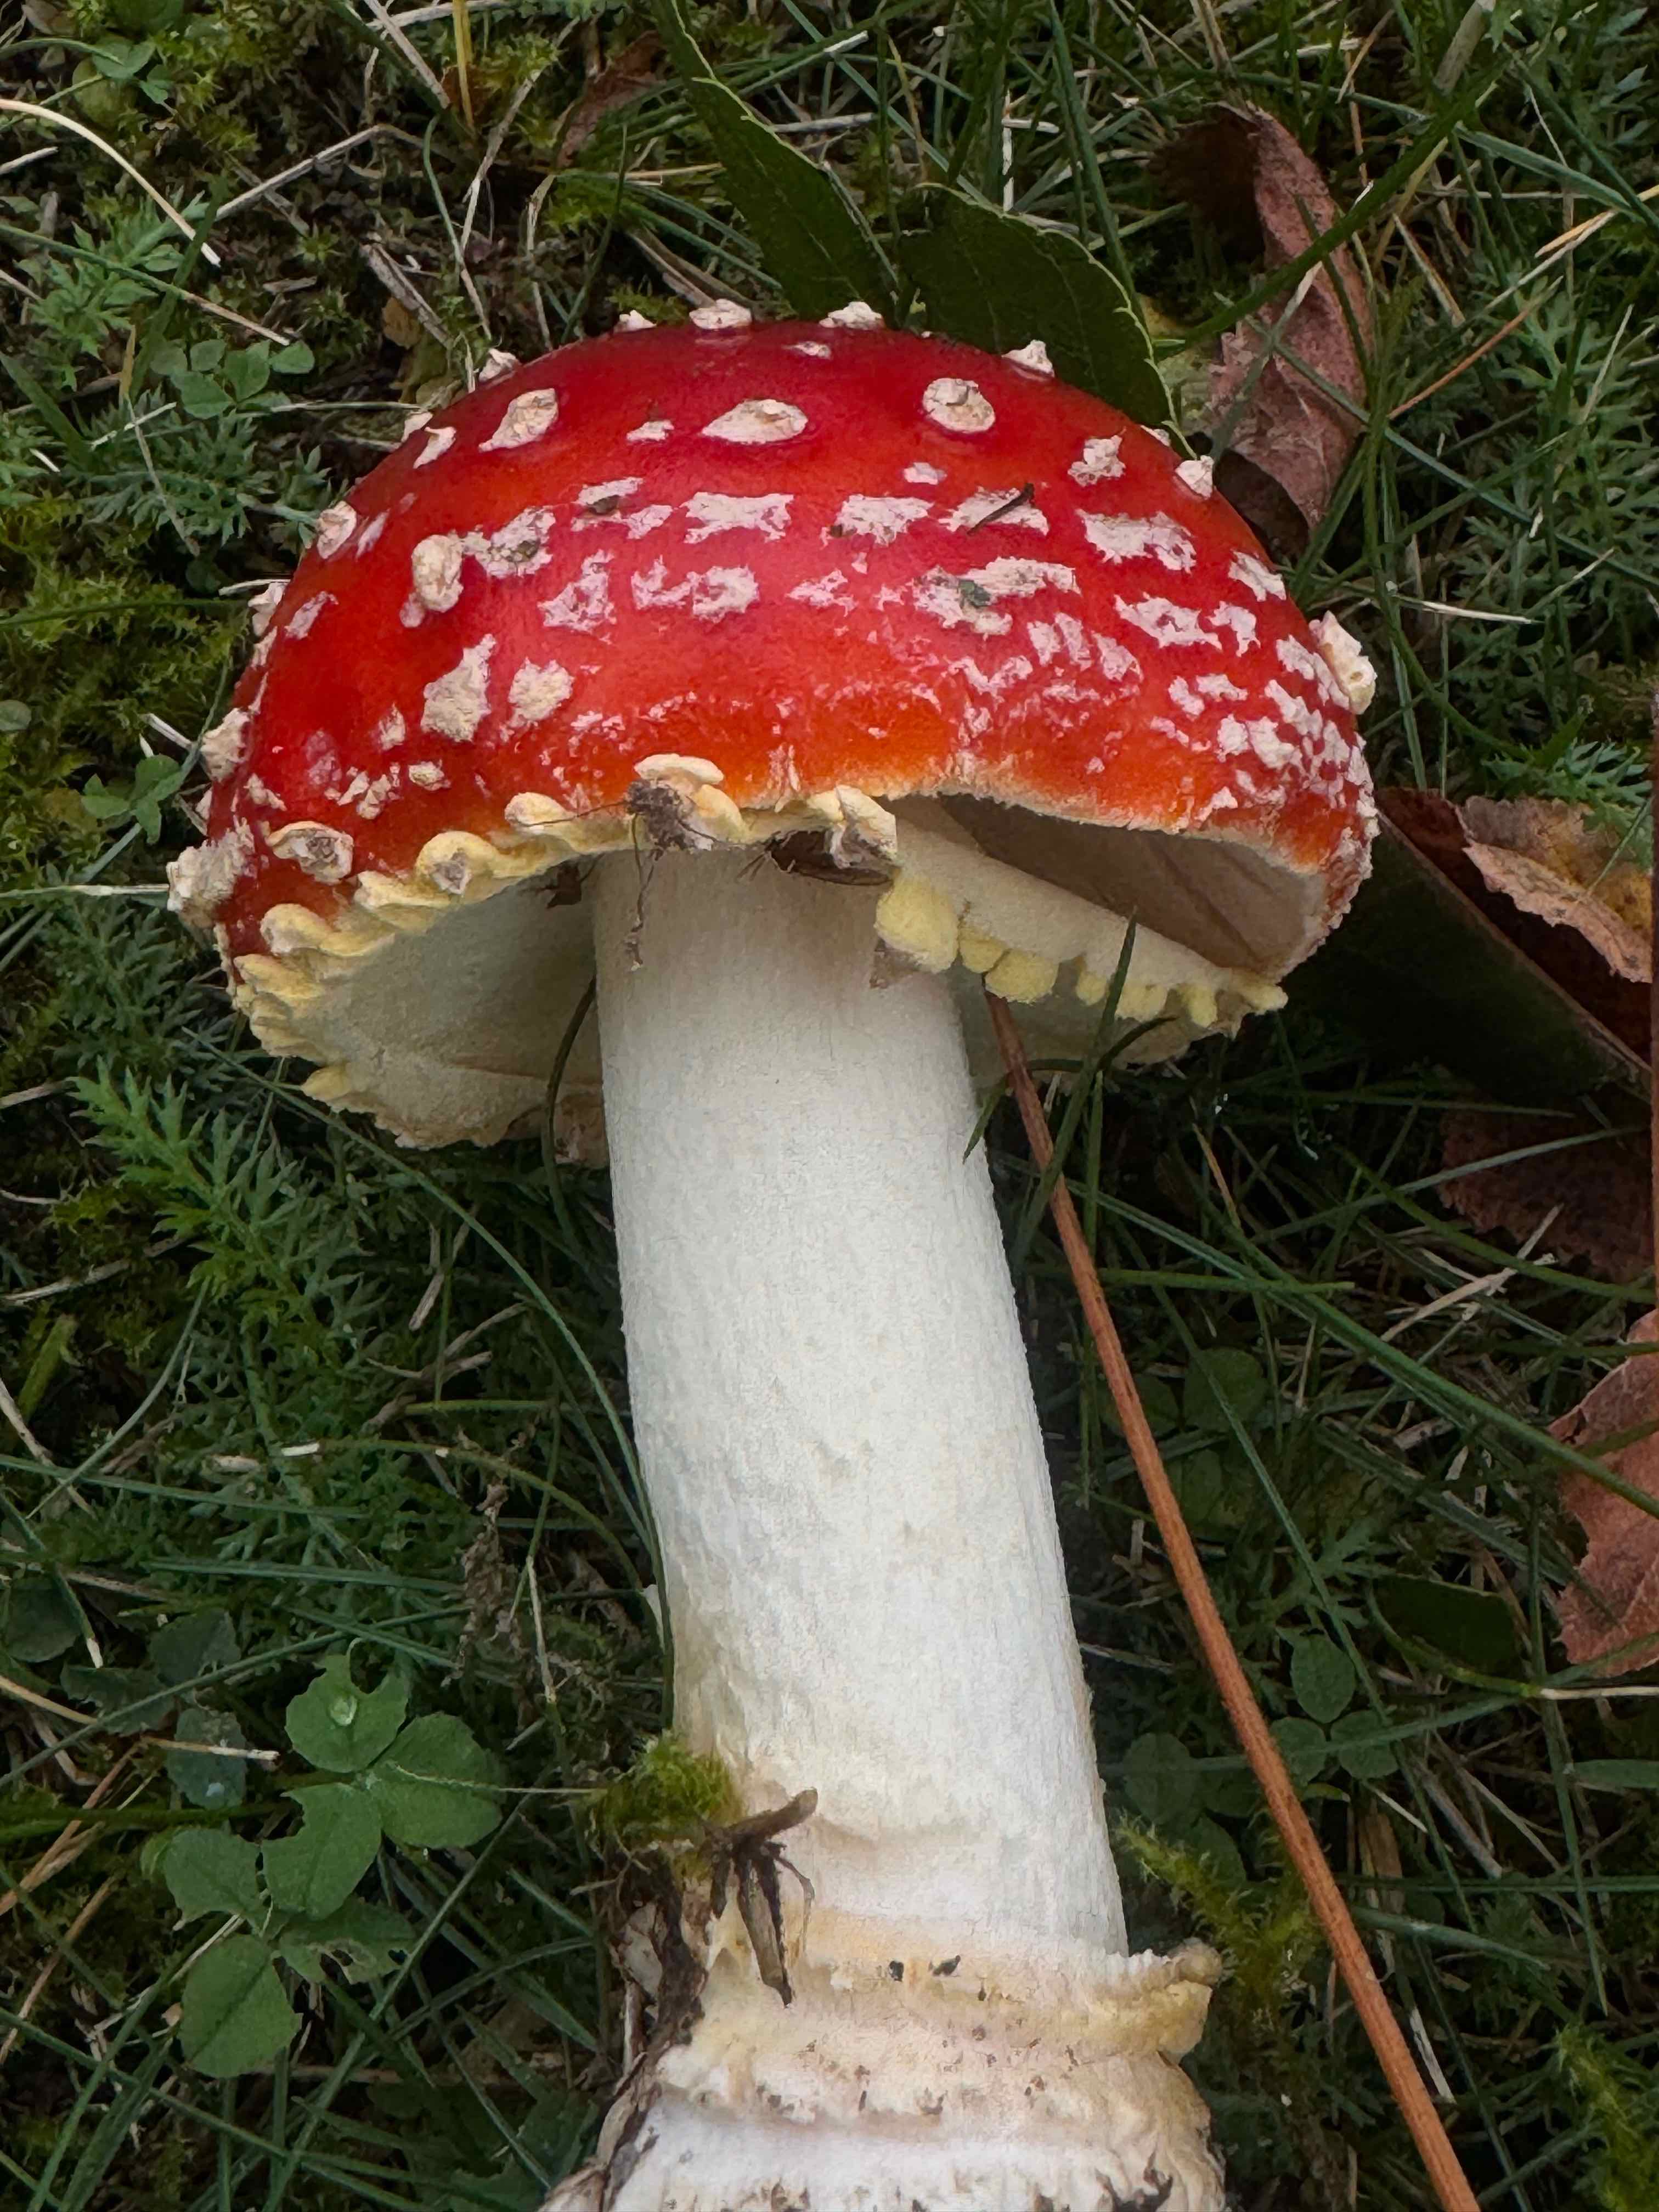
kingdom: Fungi
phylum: Basidiomycota
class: Agaricomycetes
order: Agaricales
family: Amanitaceae
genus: Amanita
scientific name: Amanita muscaria
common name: rød fluesvamp
